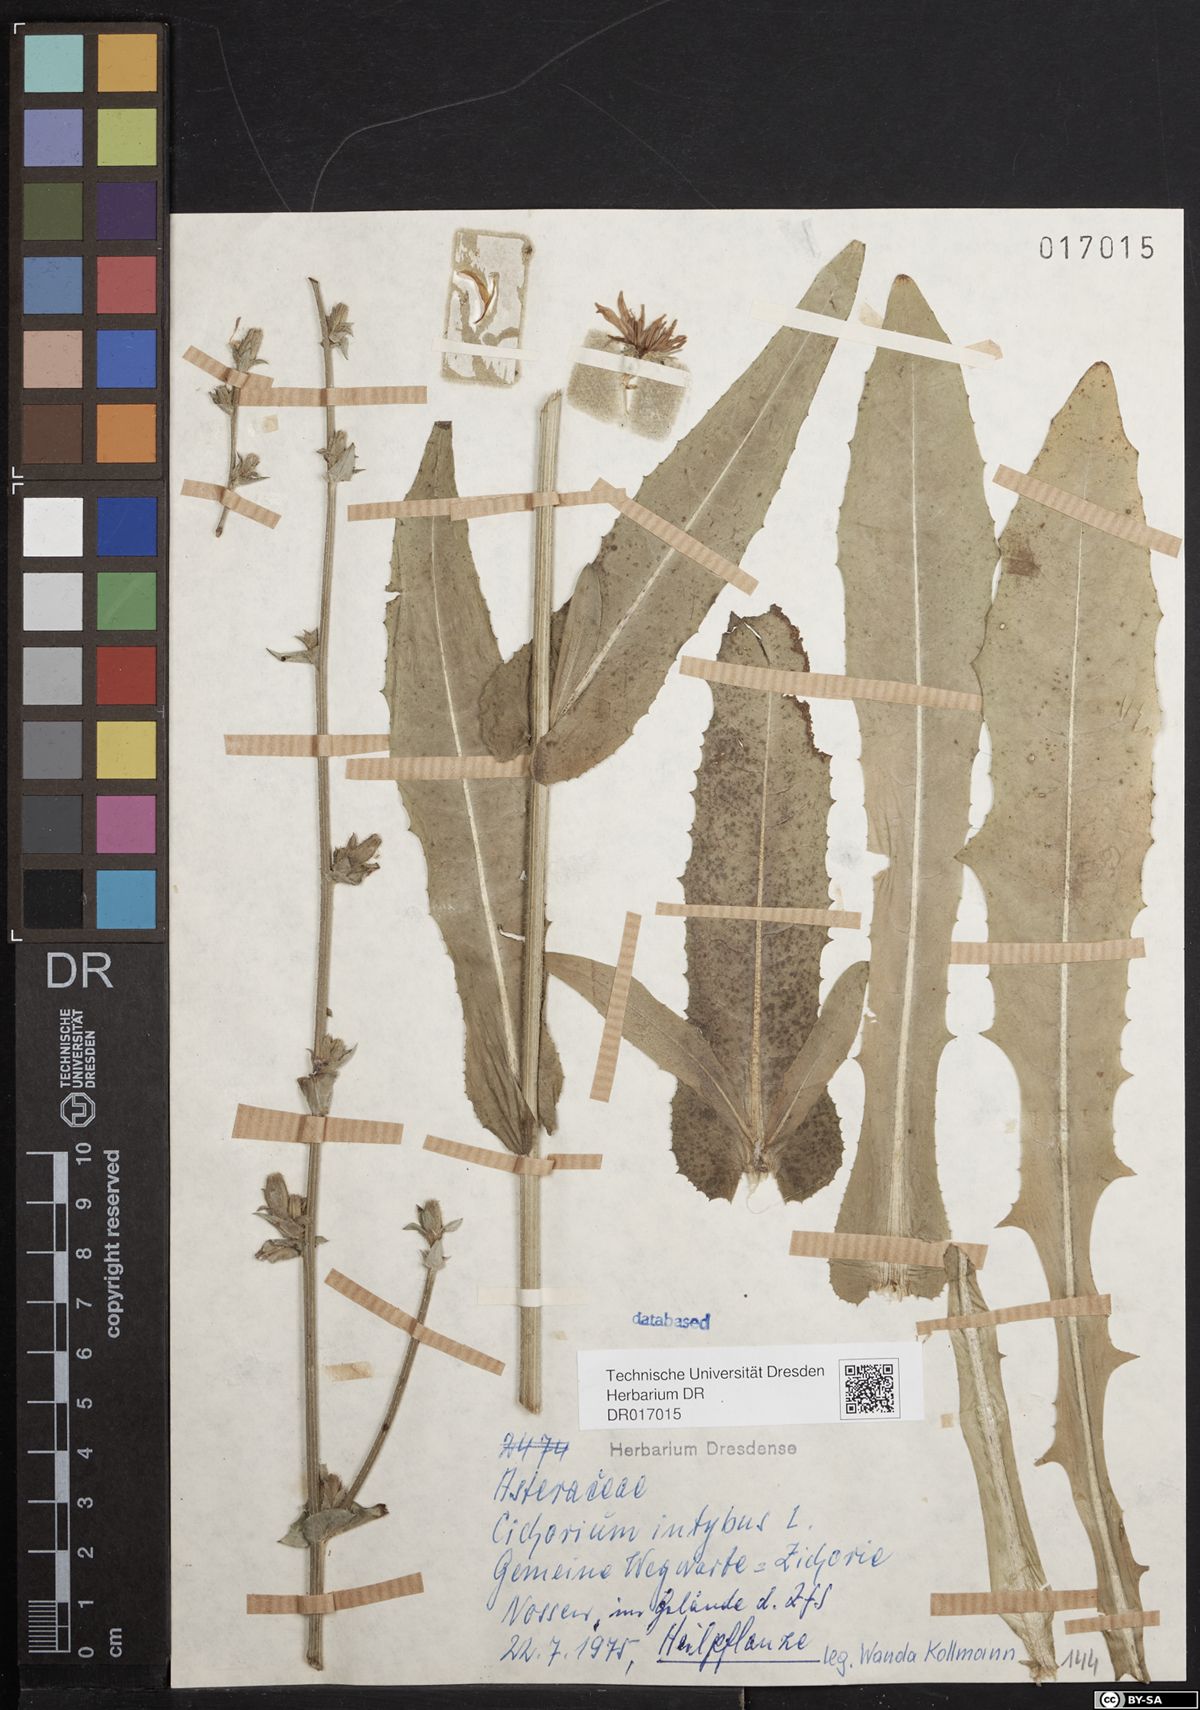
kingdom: Plantae
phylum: Tracheophyta
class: Magnoliopsida
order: Asterales
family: Asteraceae
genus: Cichorium
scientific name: Cichorium intybus
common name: Chicory
